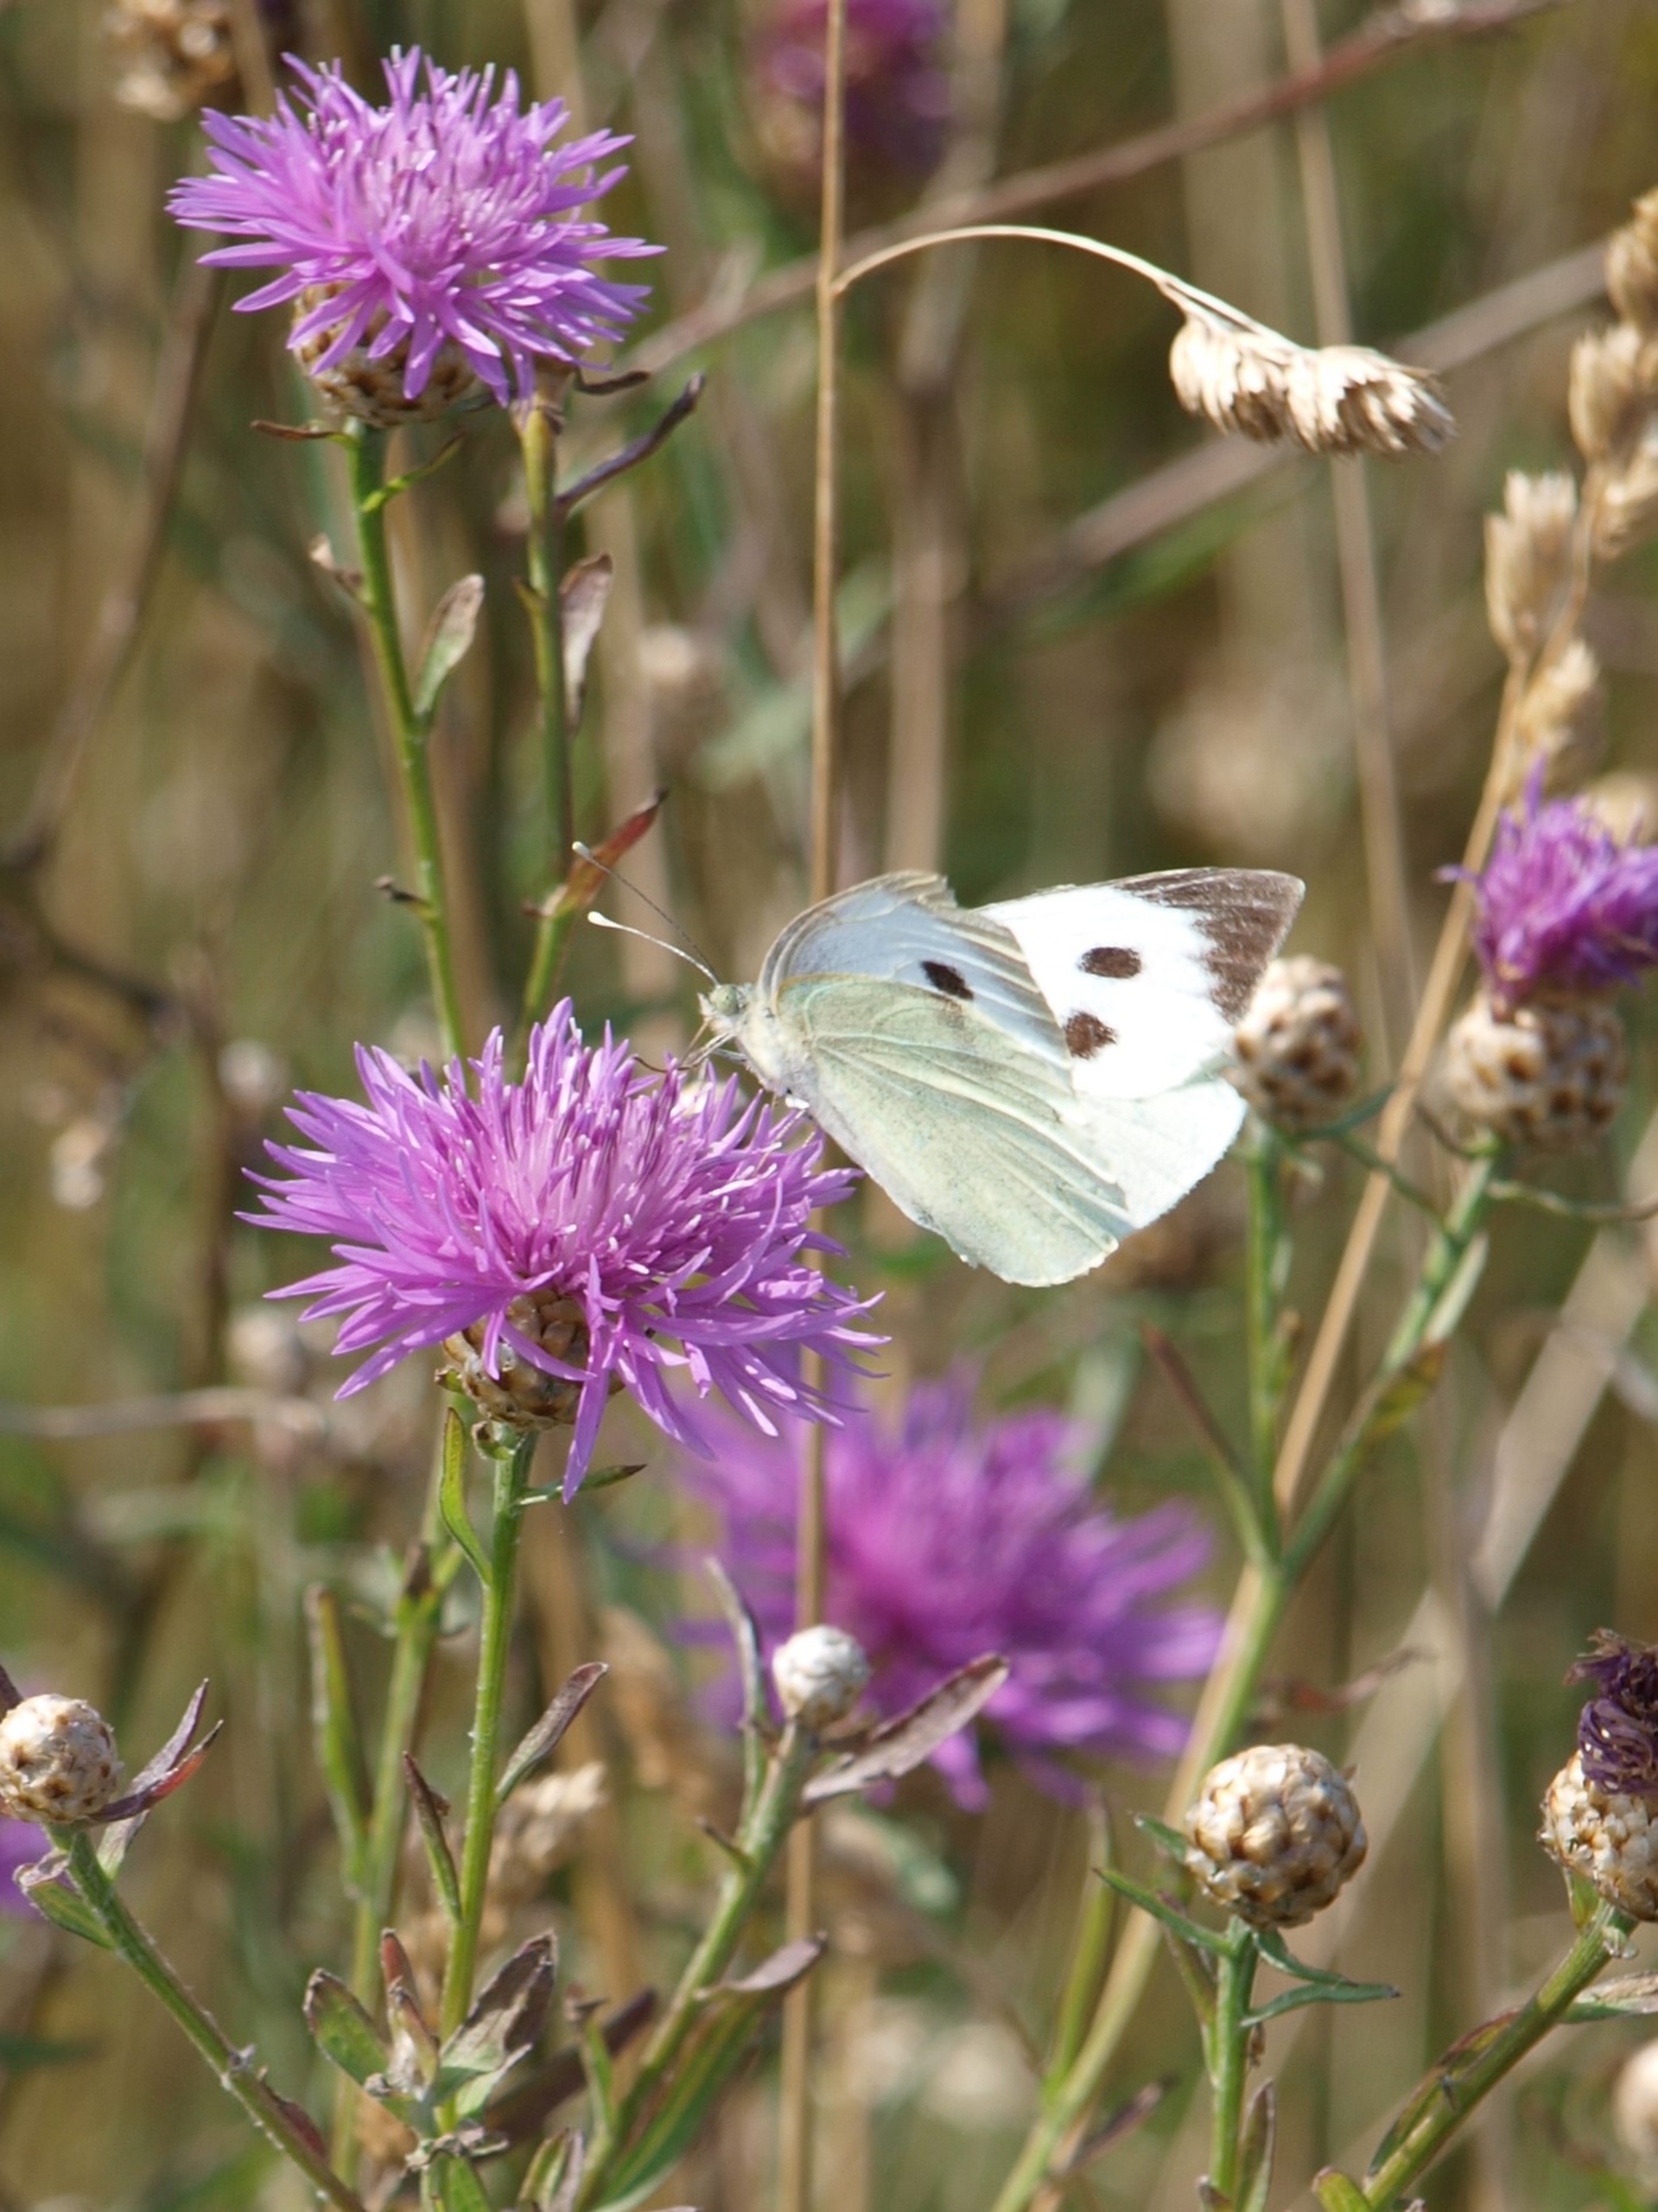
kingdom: Animalia
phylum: Arthropoda
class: Insecta
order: Lepidoptera
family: Pieridae
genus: Pieris
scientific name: Pieris brassicae
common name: Stor kålsommerfugl
